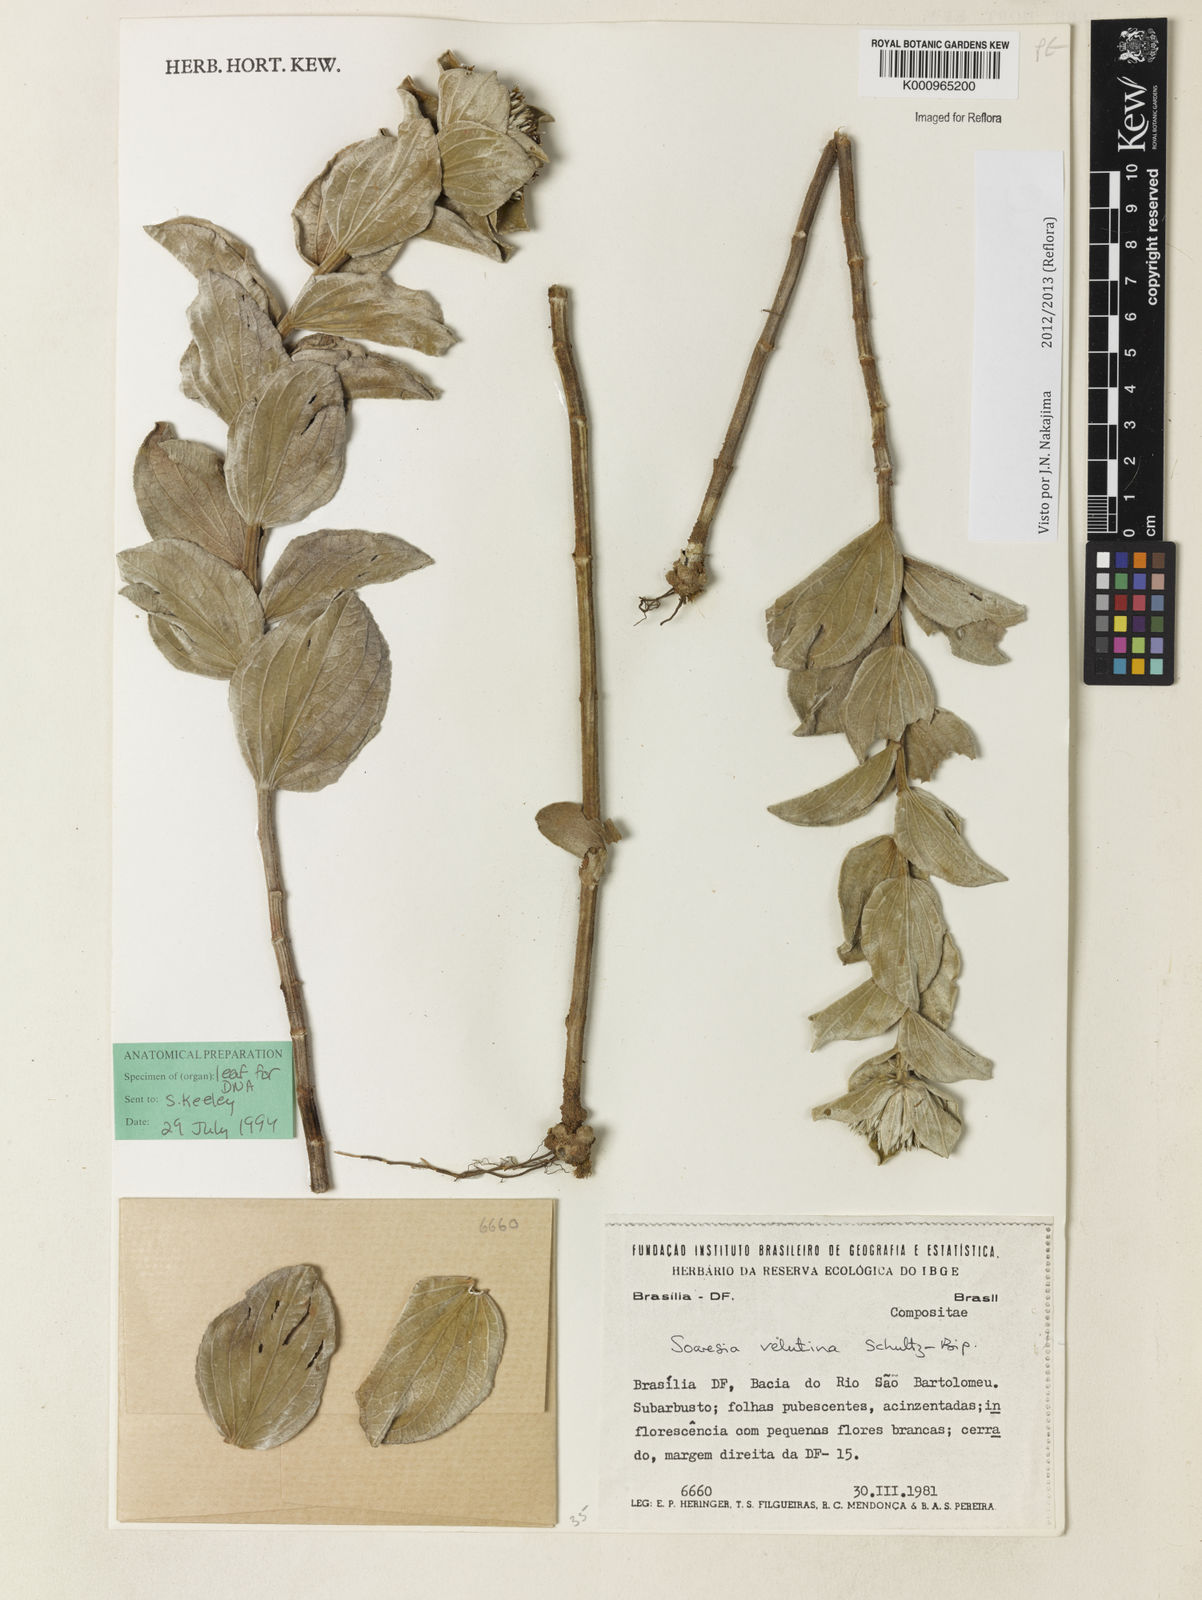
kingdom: Plantae
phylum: Tracheophyta
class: Magnoliopsida
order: Asterales
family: Asteraceae
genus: Soaresia
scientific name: Soaresia velutina
